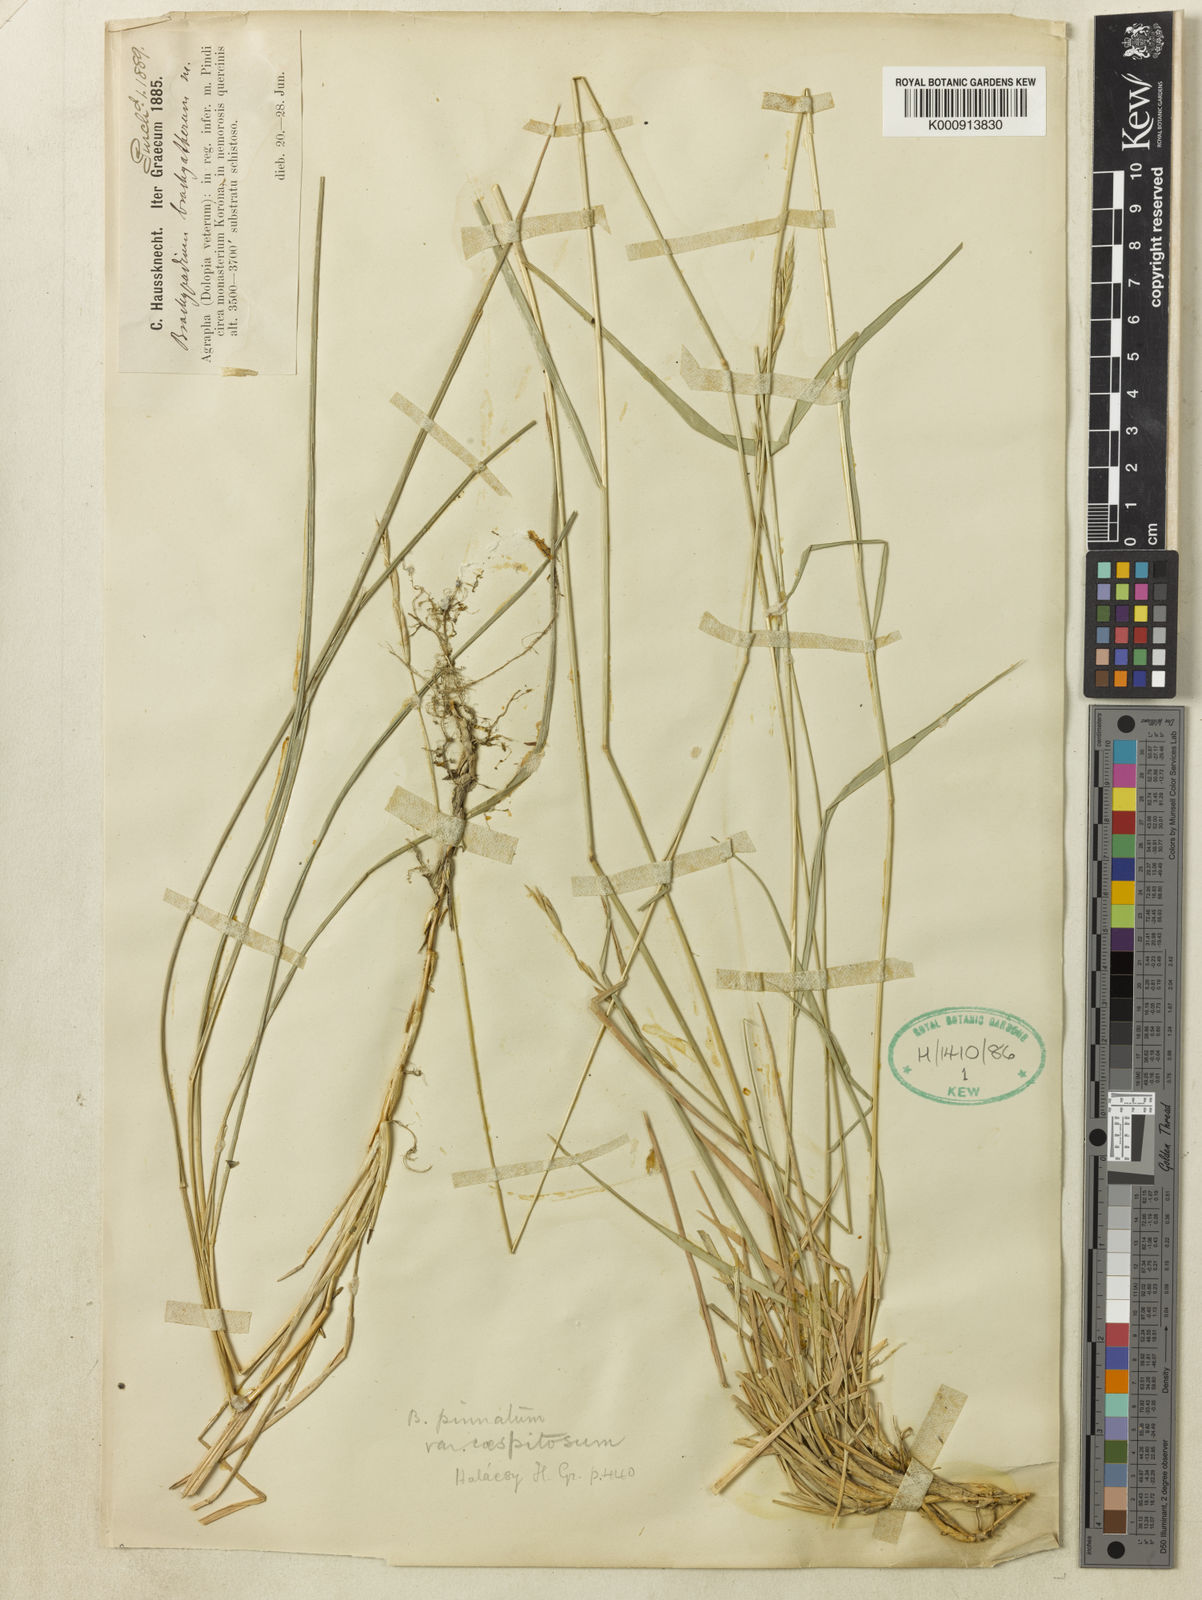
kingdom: Plantae
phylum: Tracheophyta
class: Liliopsida
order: Poales
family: Poaceae
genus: Brachypodium
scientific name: Brachypodium pinnatum
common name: Tor grass
